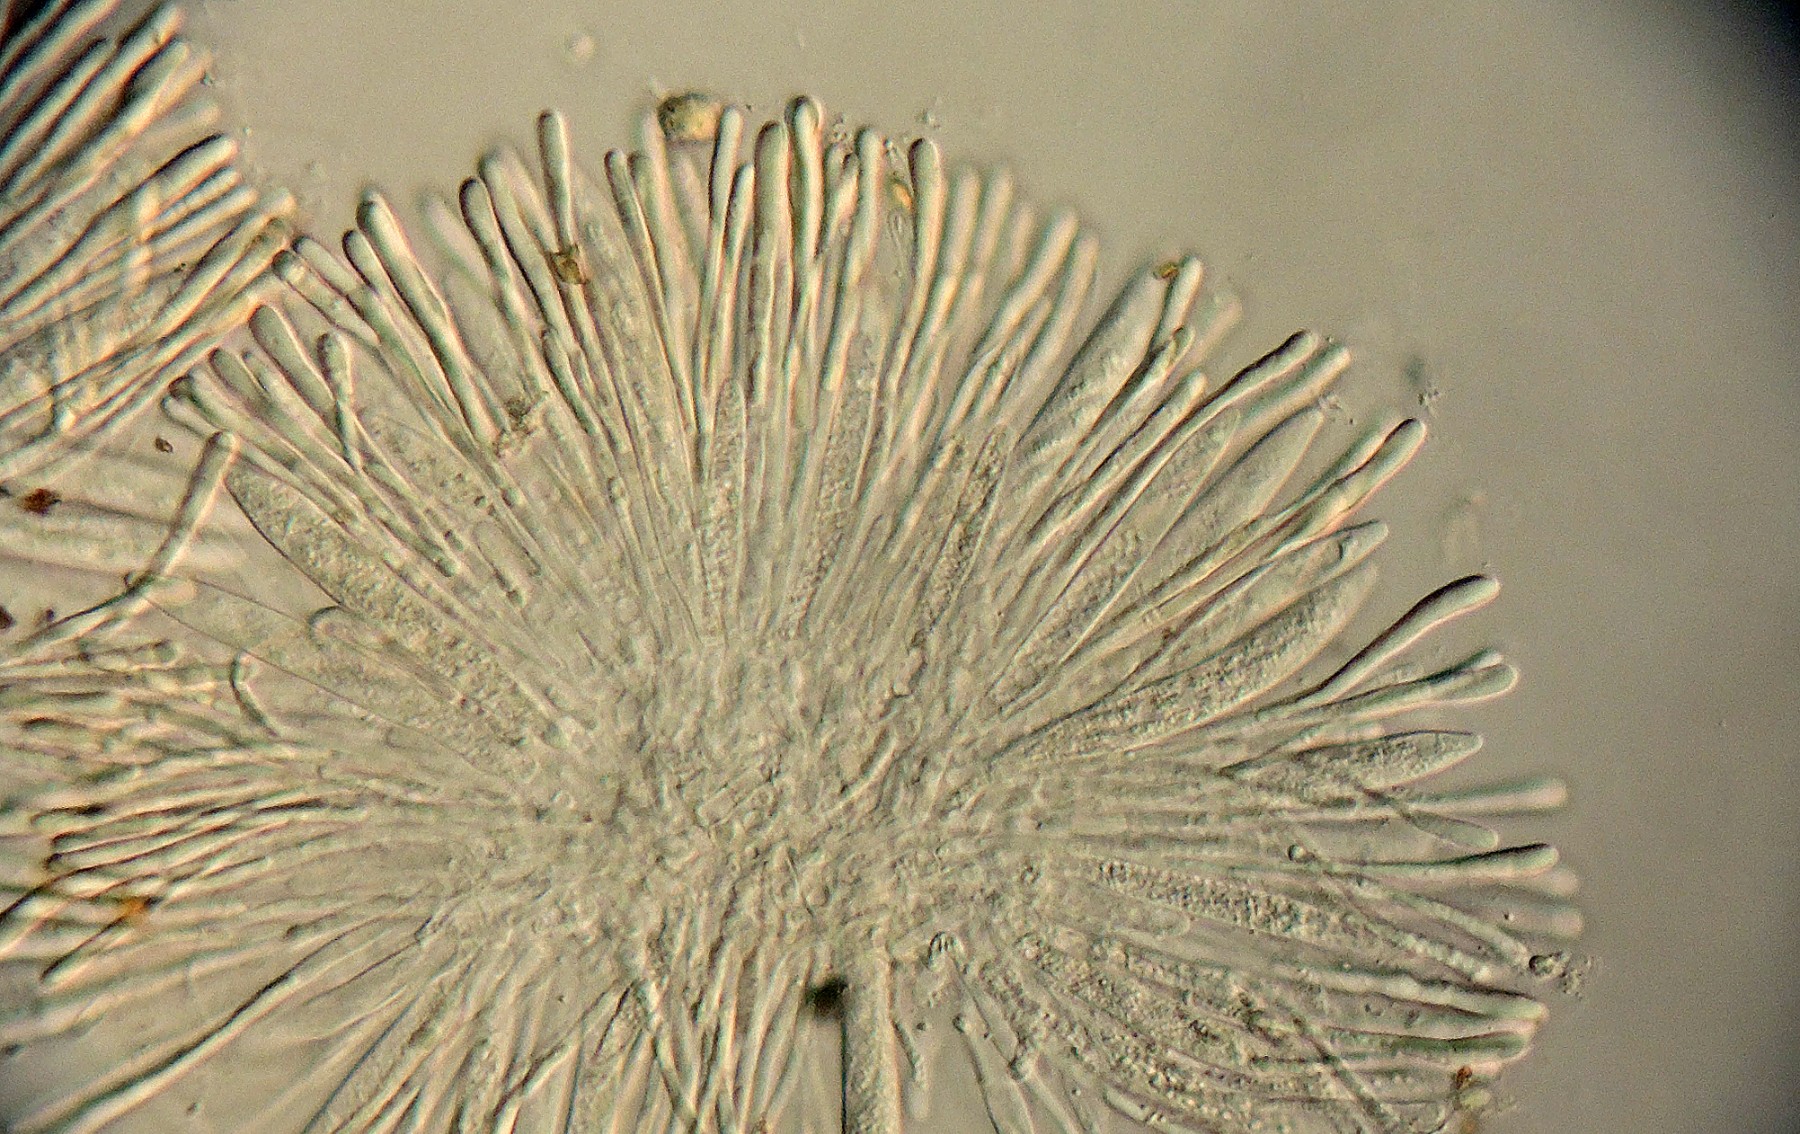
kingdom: Fungi
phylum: Ascomycota
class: Leotiomycetes
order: Helotiales
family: Mollisiaceae
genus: Scutomollisia
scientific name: Scutomollisia stenospora
